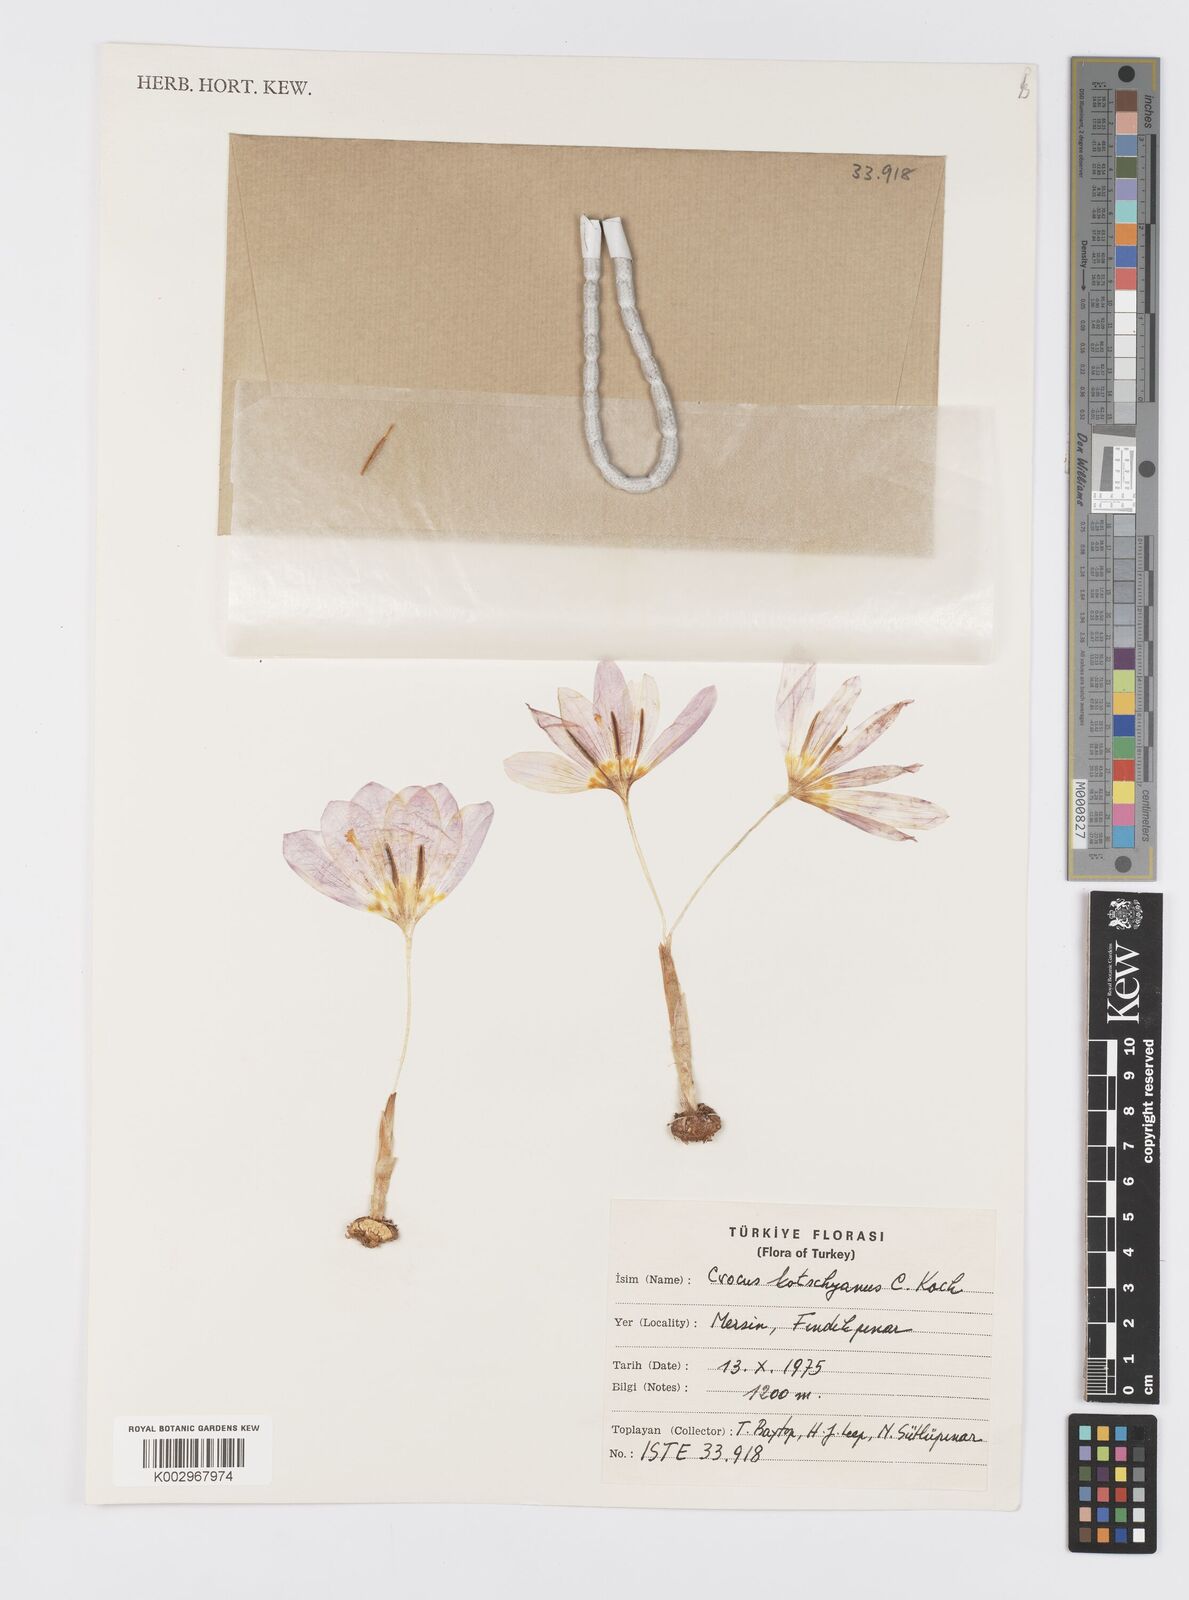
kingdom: Plantae
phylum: Tracheophyta
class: Liliopsida
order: Asparagales
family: Iridaceae
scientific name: Iridaceae
